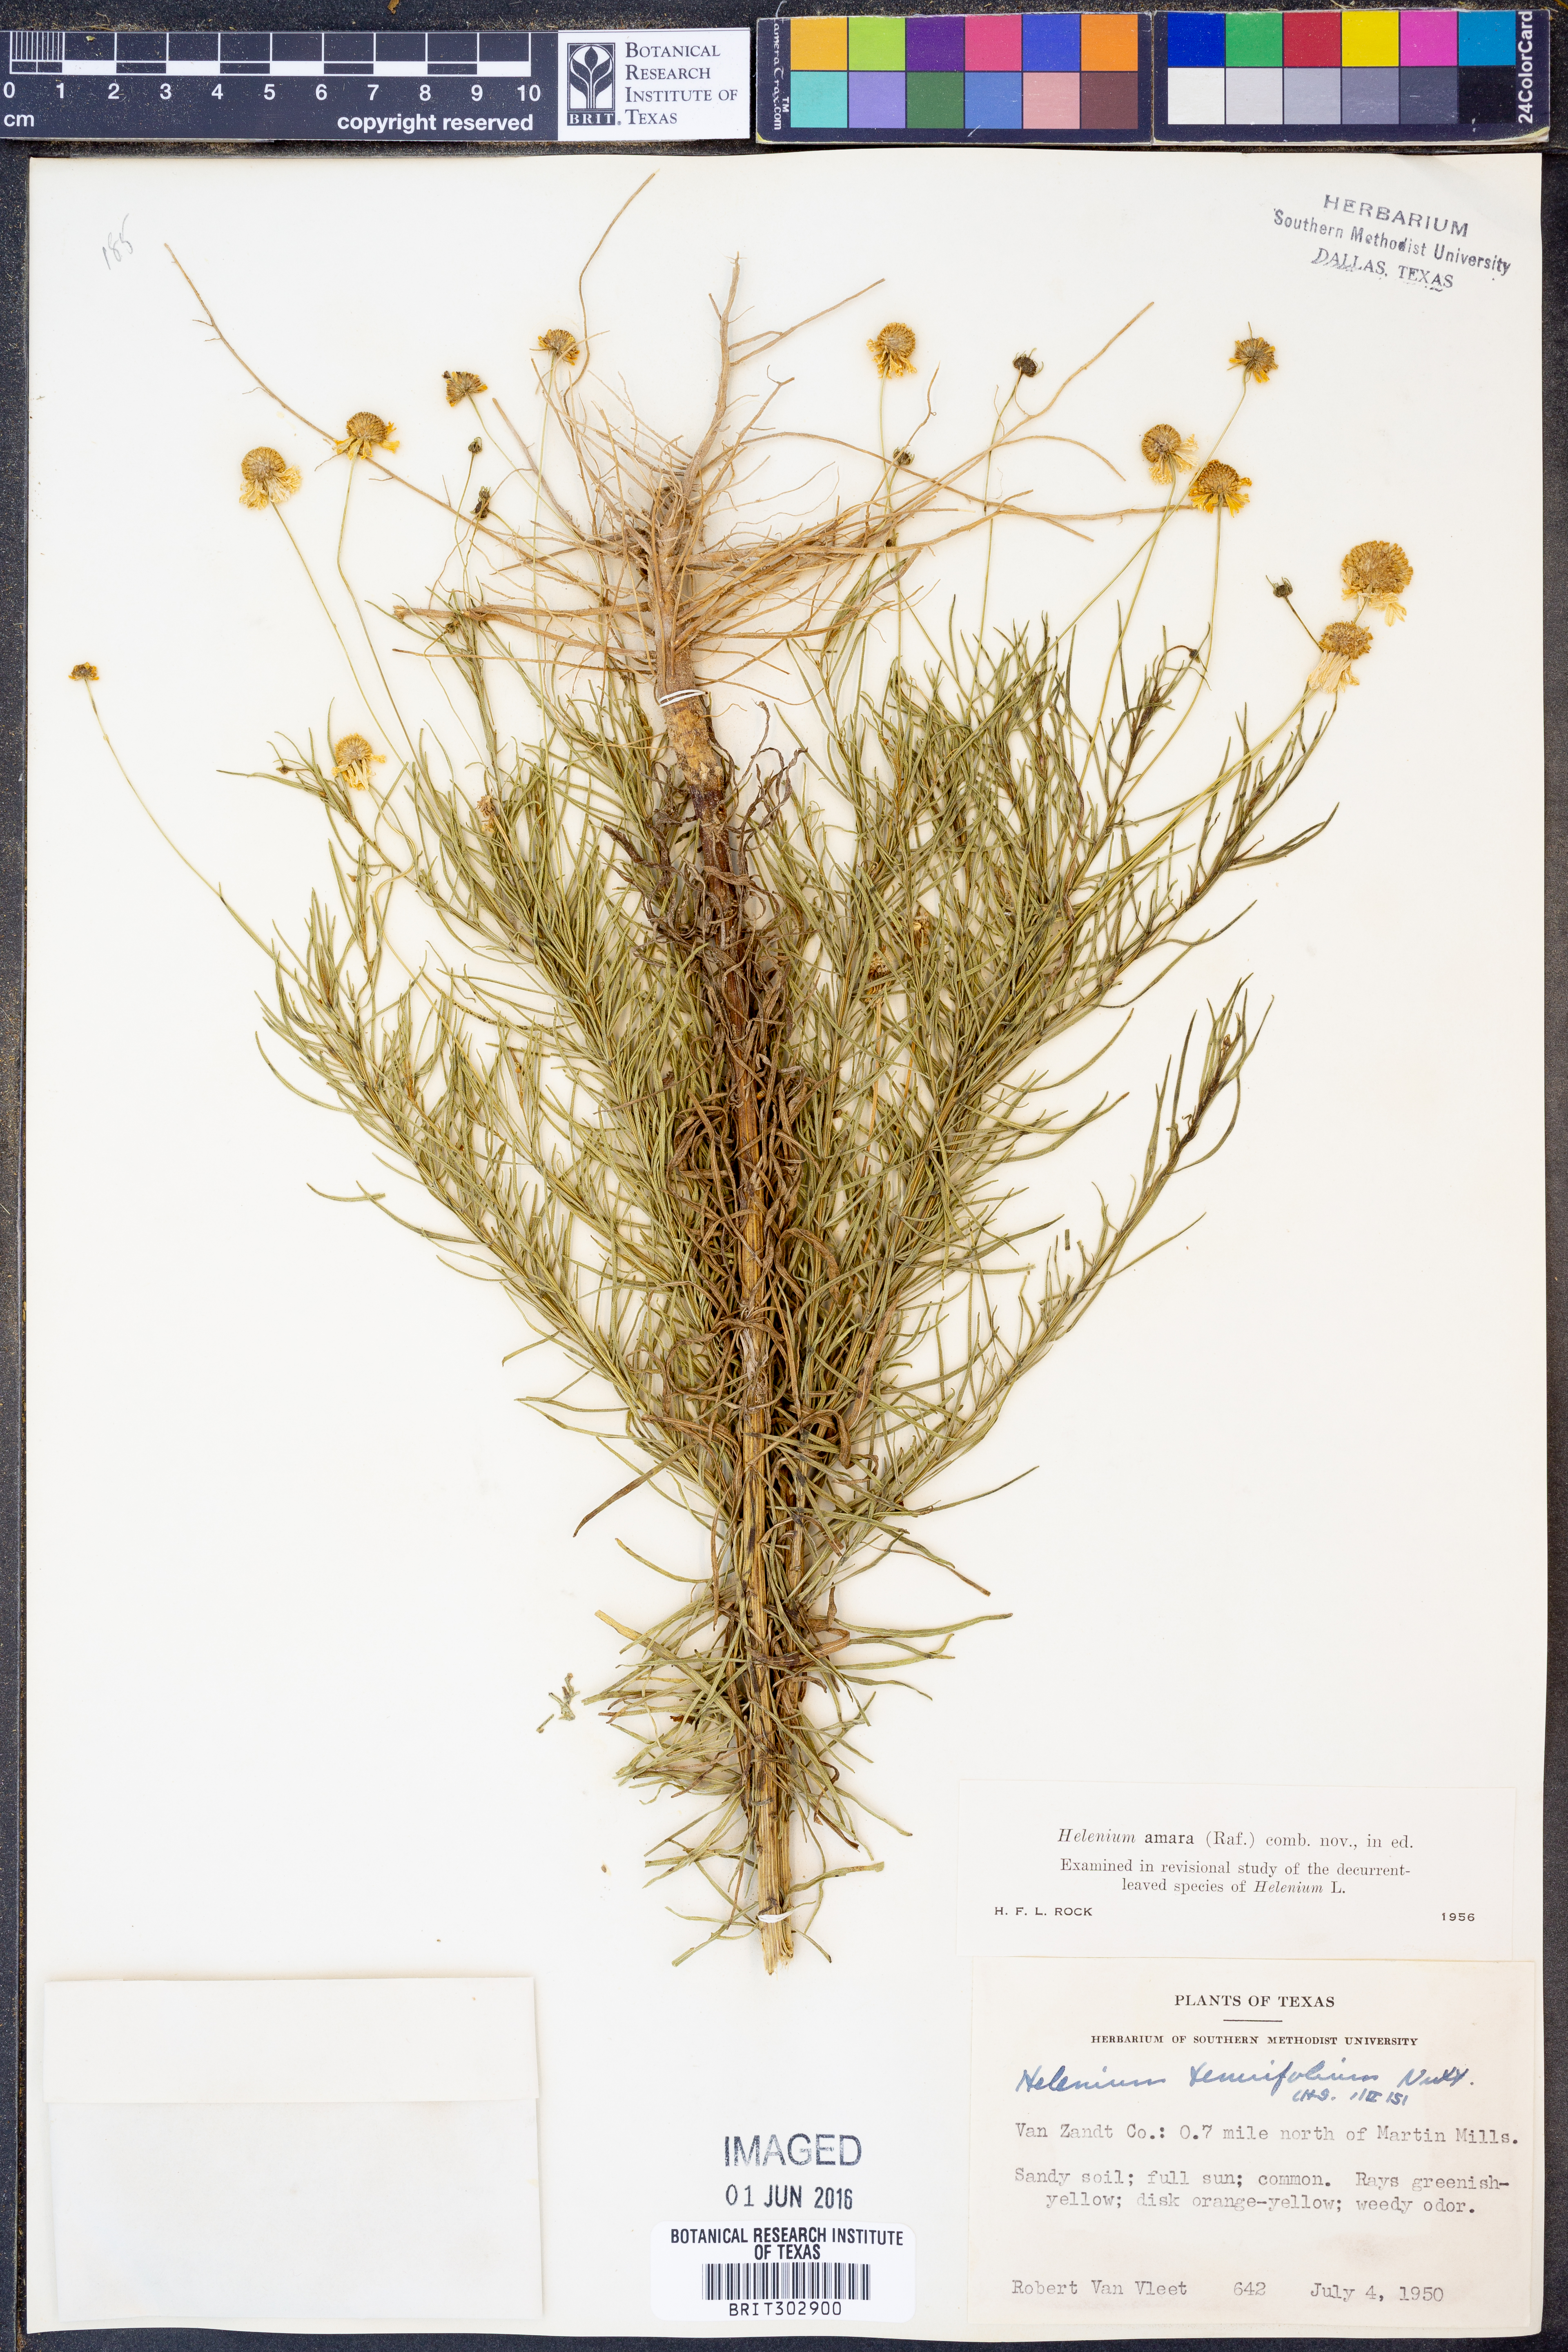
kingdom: Plantae
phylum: Tracheophyta
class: Magnoliopsida
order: Asterales
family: Asteraceae
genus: Helenium
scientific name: Helenium amarum
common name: Bitter sneezeweed
